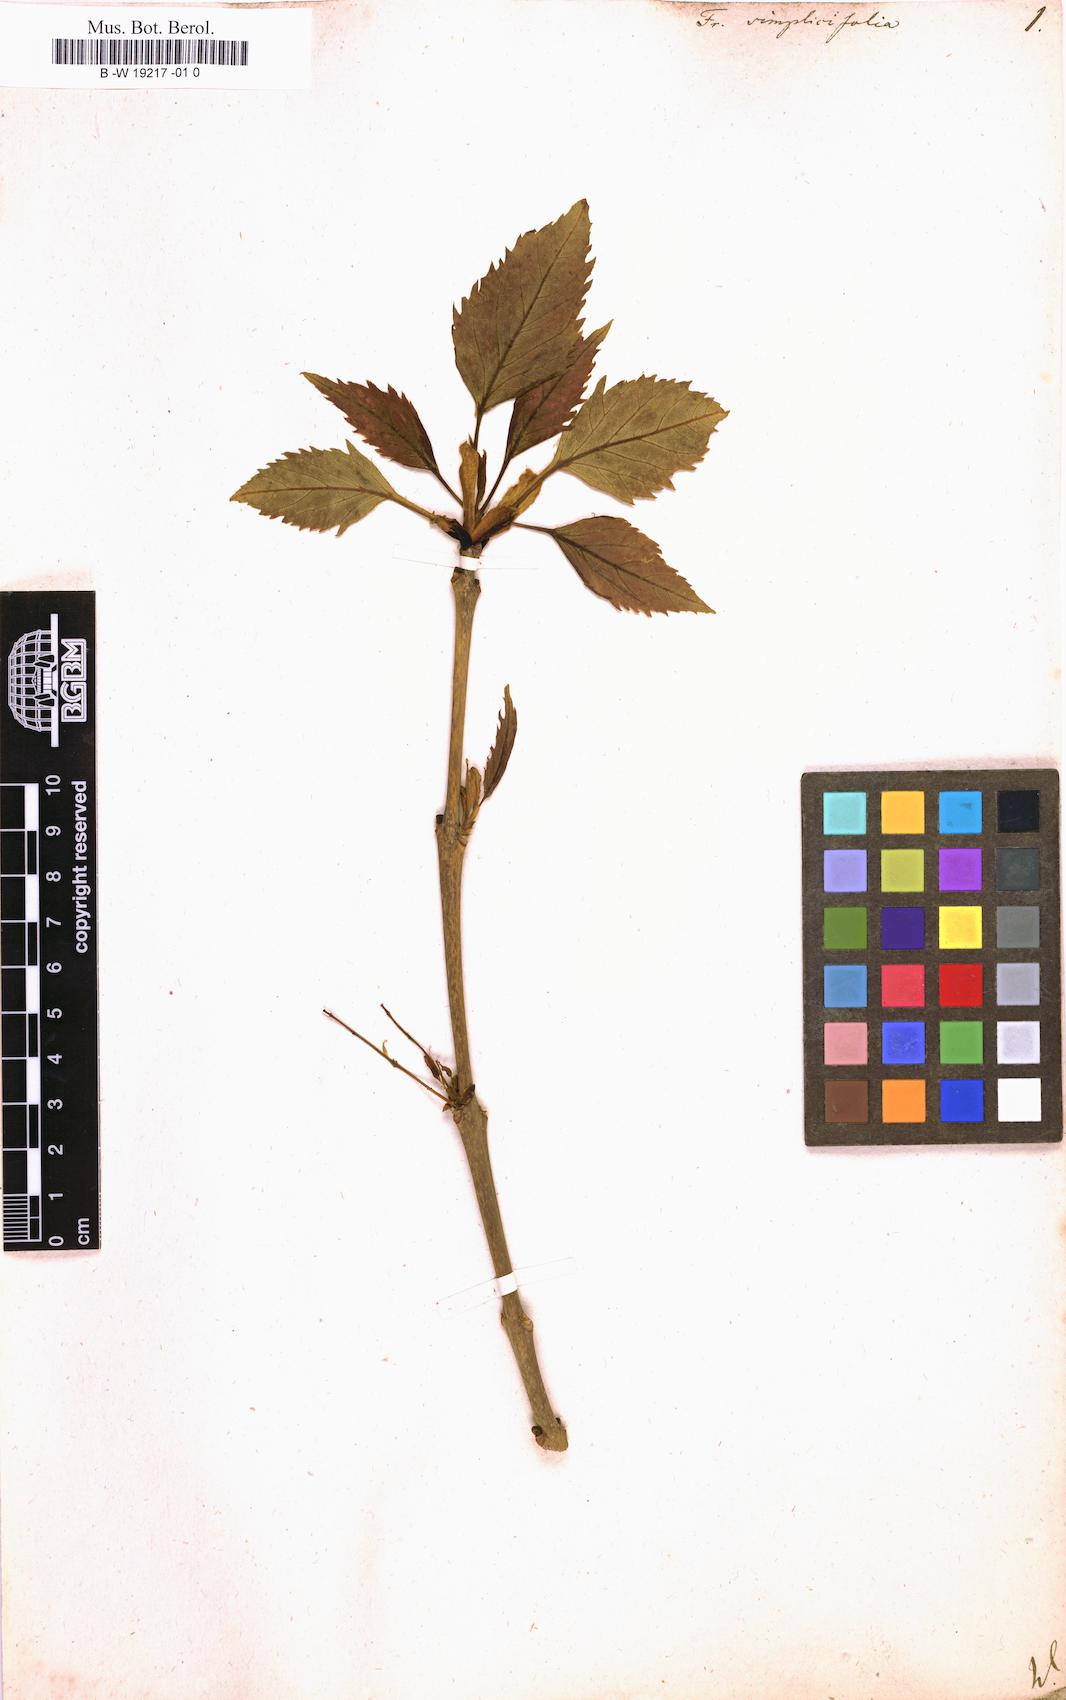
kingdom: Plantae
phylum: Tracheophyta
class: Magnoliopsida
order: Lamiales
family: Oleaceae
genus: Fraxinus
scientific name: Fraxinus excelsior
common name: European ash
